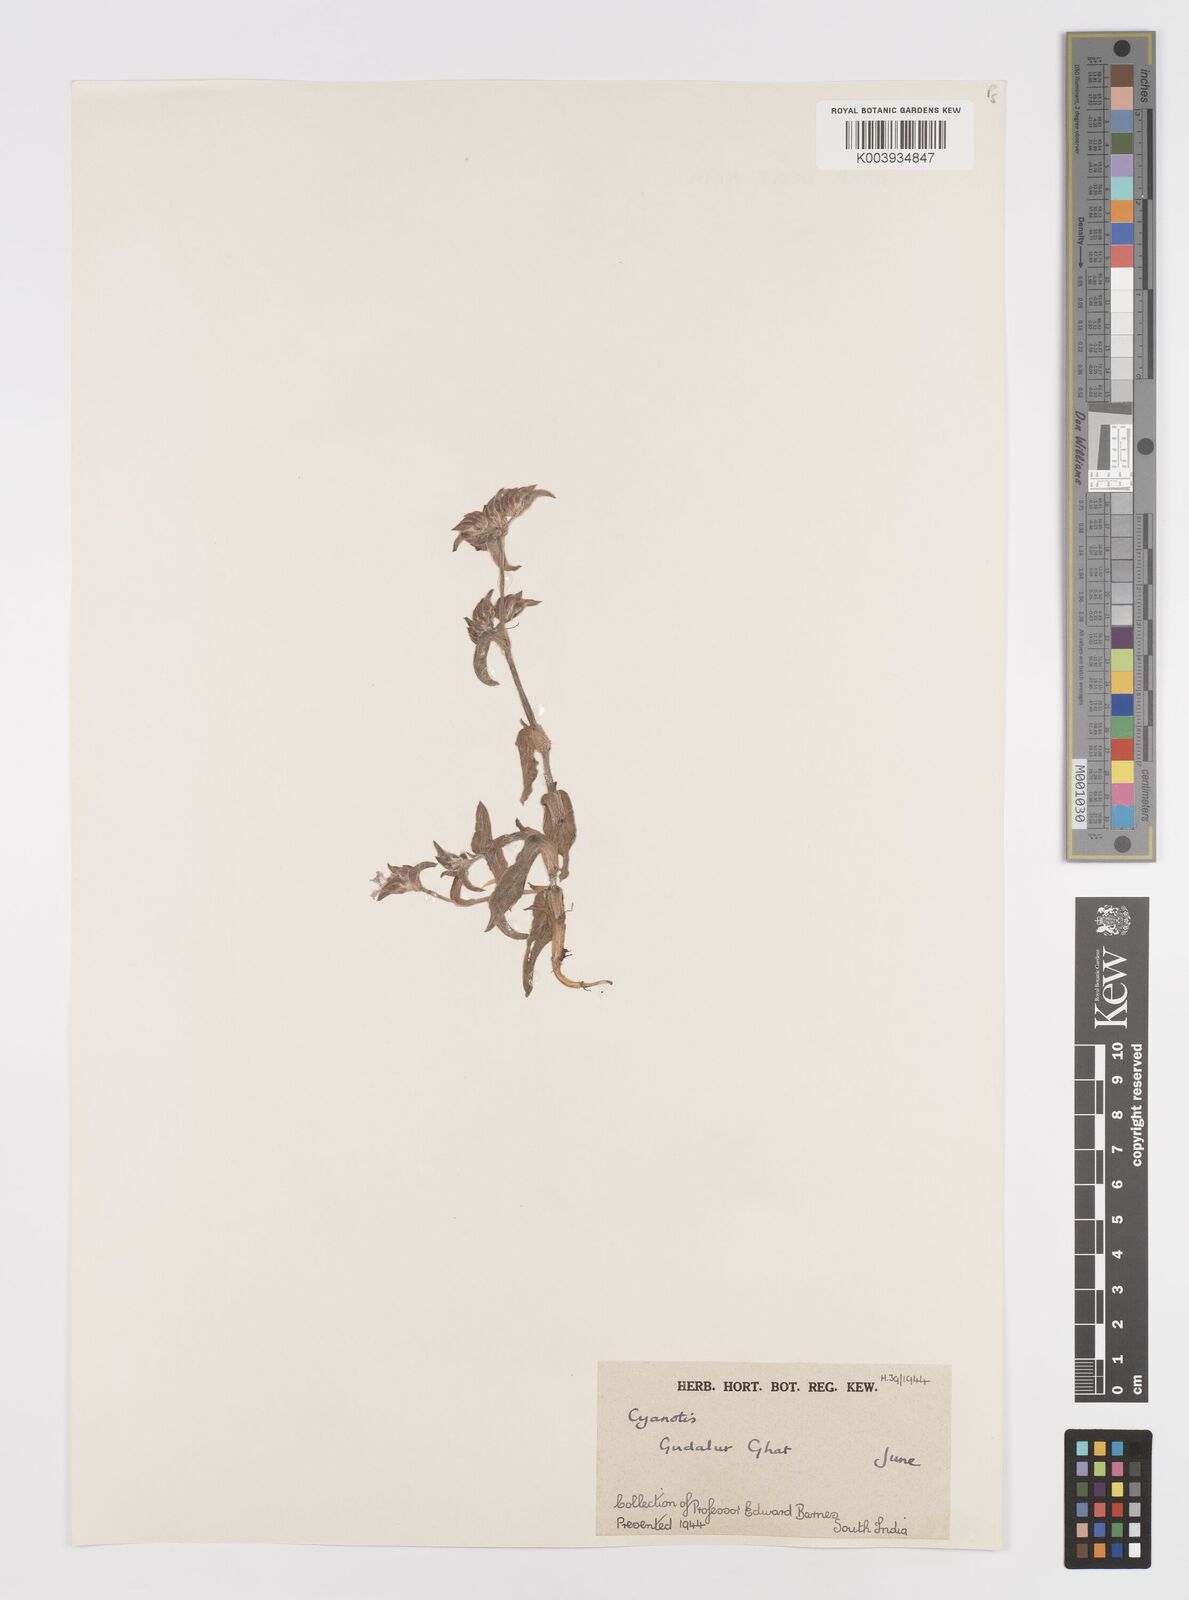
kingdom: Plantae
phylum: Tracheophyta
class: Liliopsida
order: Commelinales
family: Commelinaceae
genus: Cyanotis
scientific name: Cyanotis
